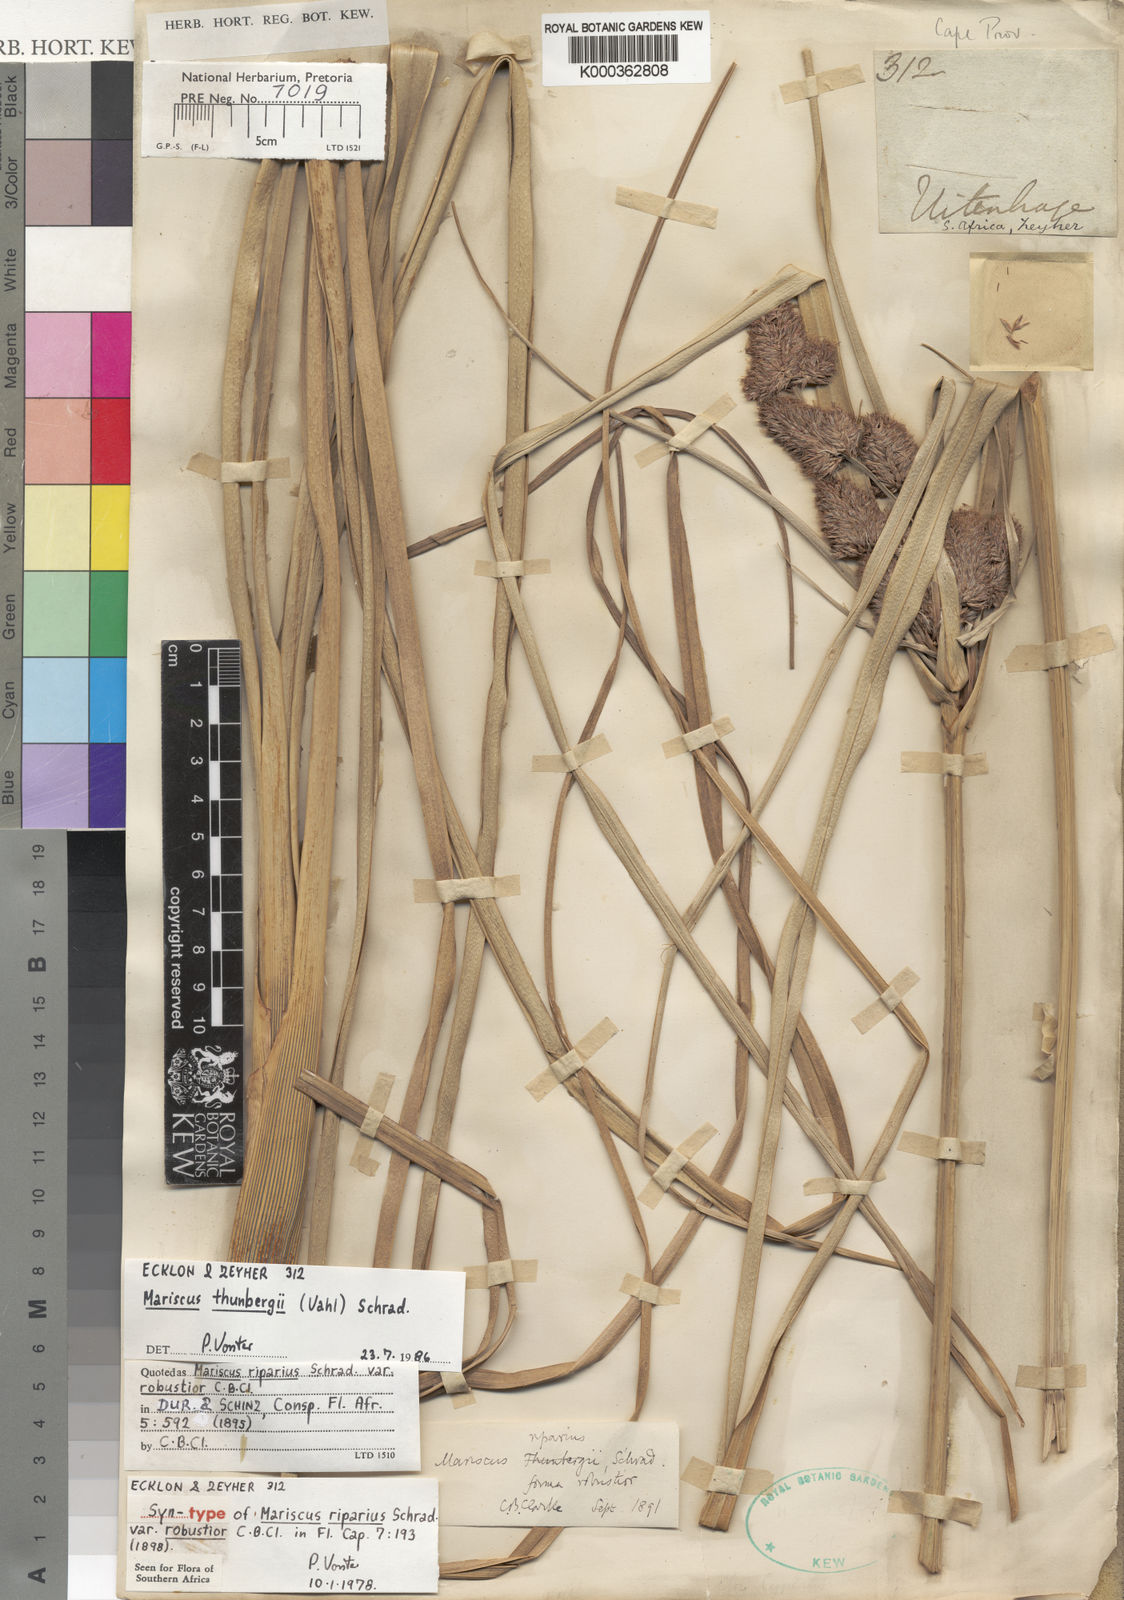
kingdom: Plantae
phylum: Tracheophyta
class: Liliopsida
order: Poales
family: Cyperaceae
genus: Cyperus
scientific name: Cyperus thunbergii
